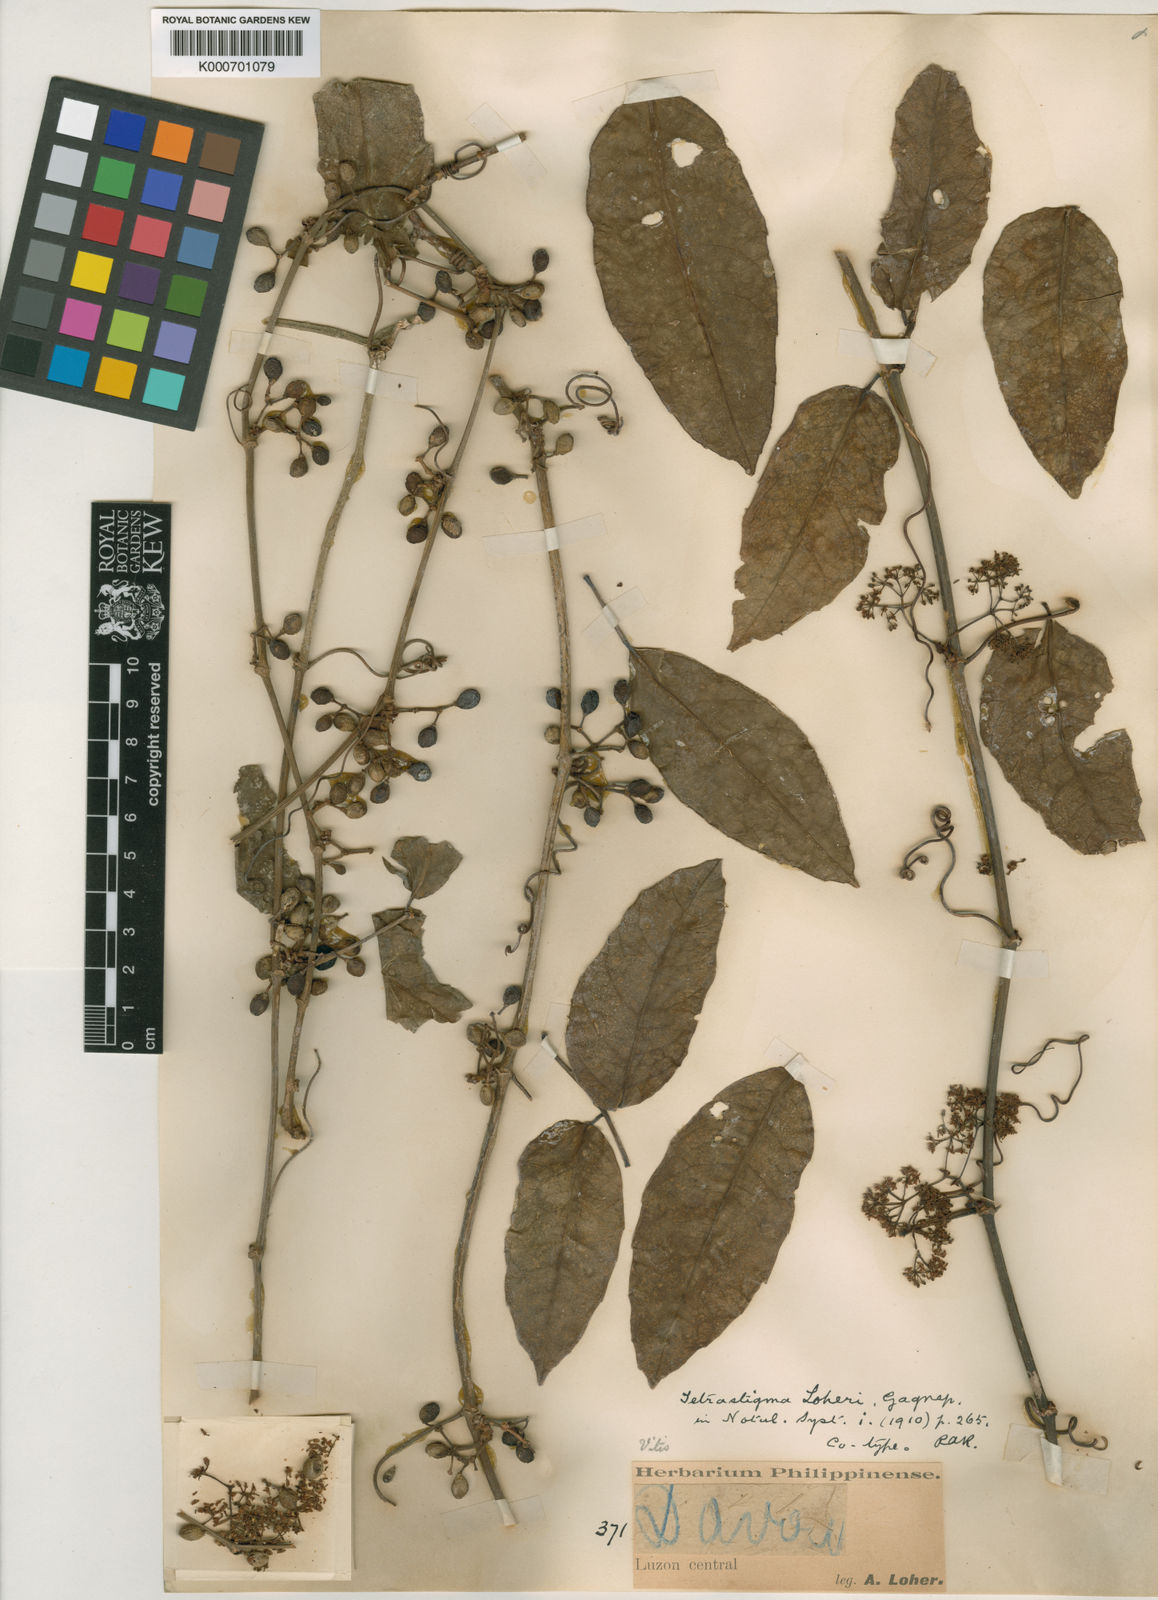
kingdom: Plantae
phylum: Tracheophyta
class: Magnoliopsida
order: Vitales
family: Vitaceae
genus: Tetrastigma
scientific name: Tetrastigma loheri
